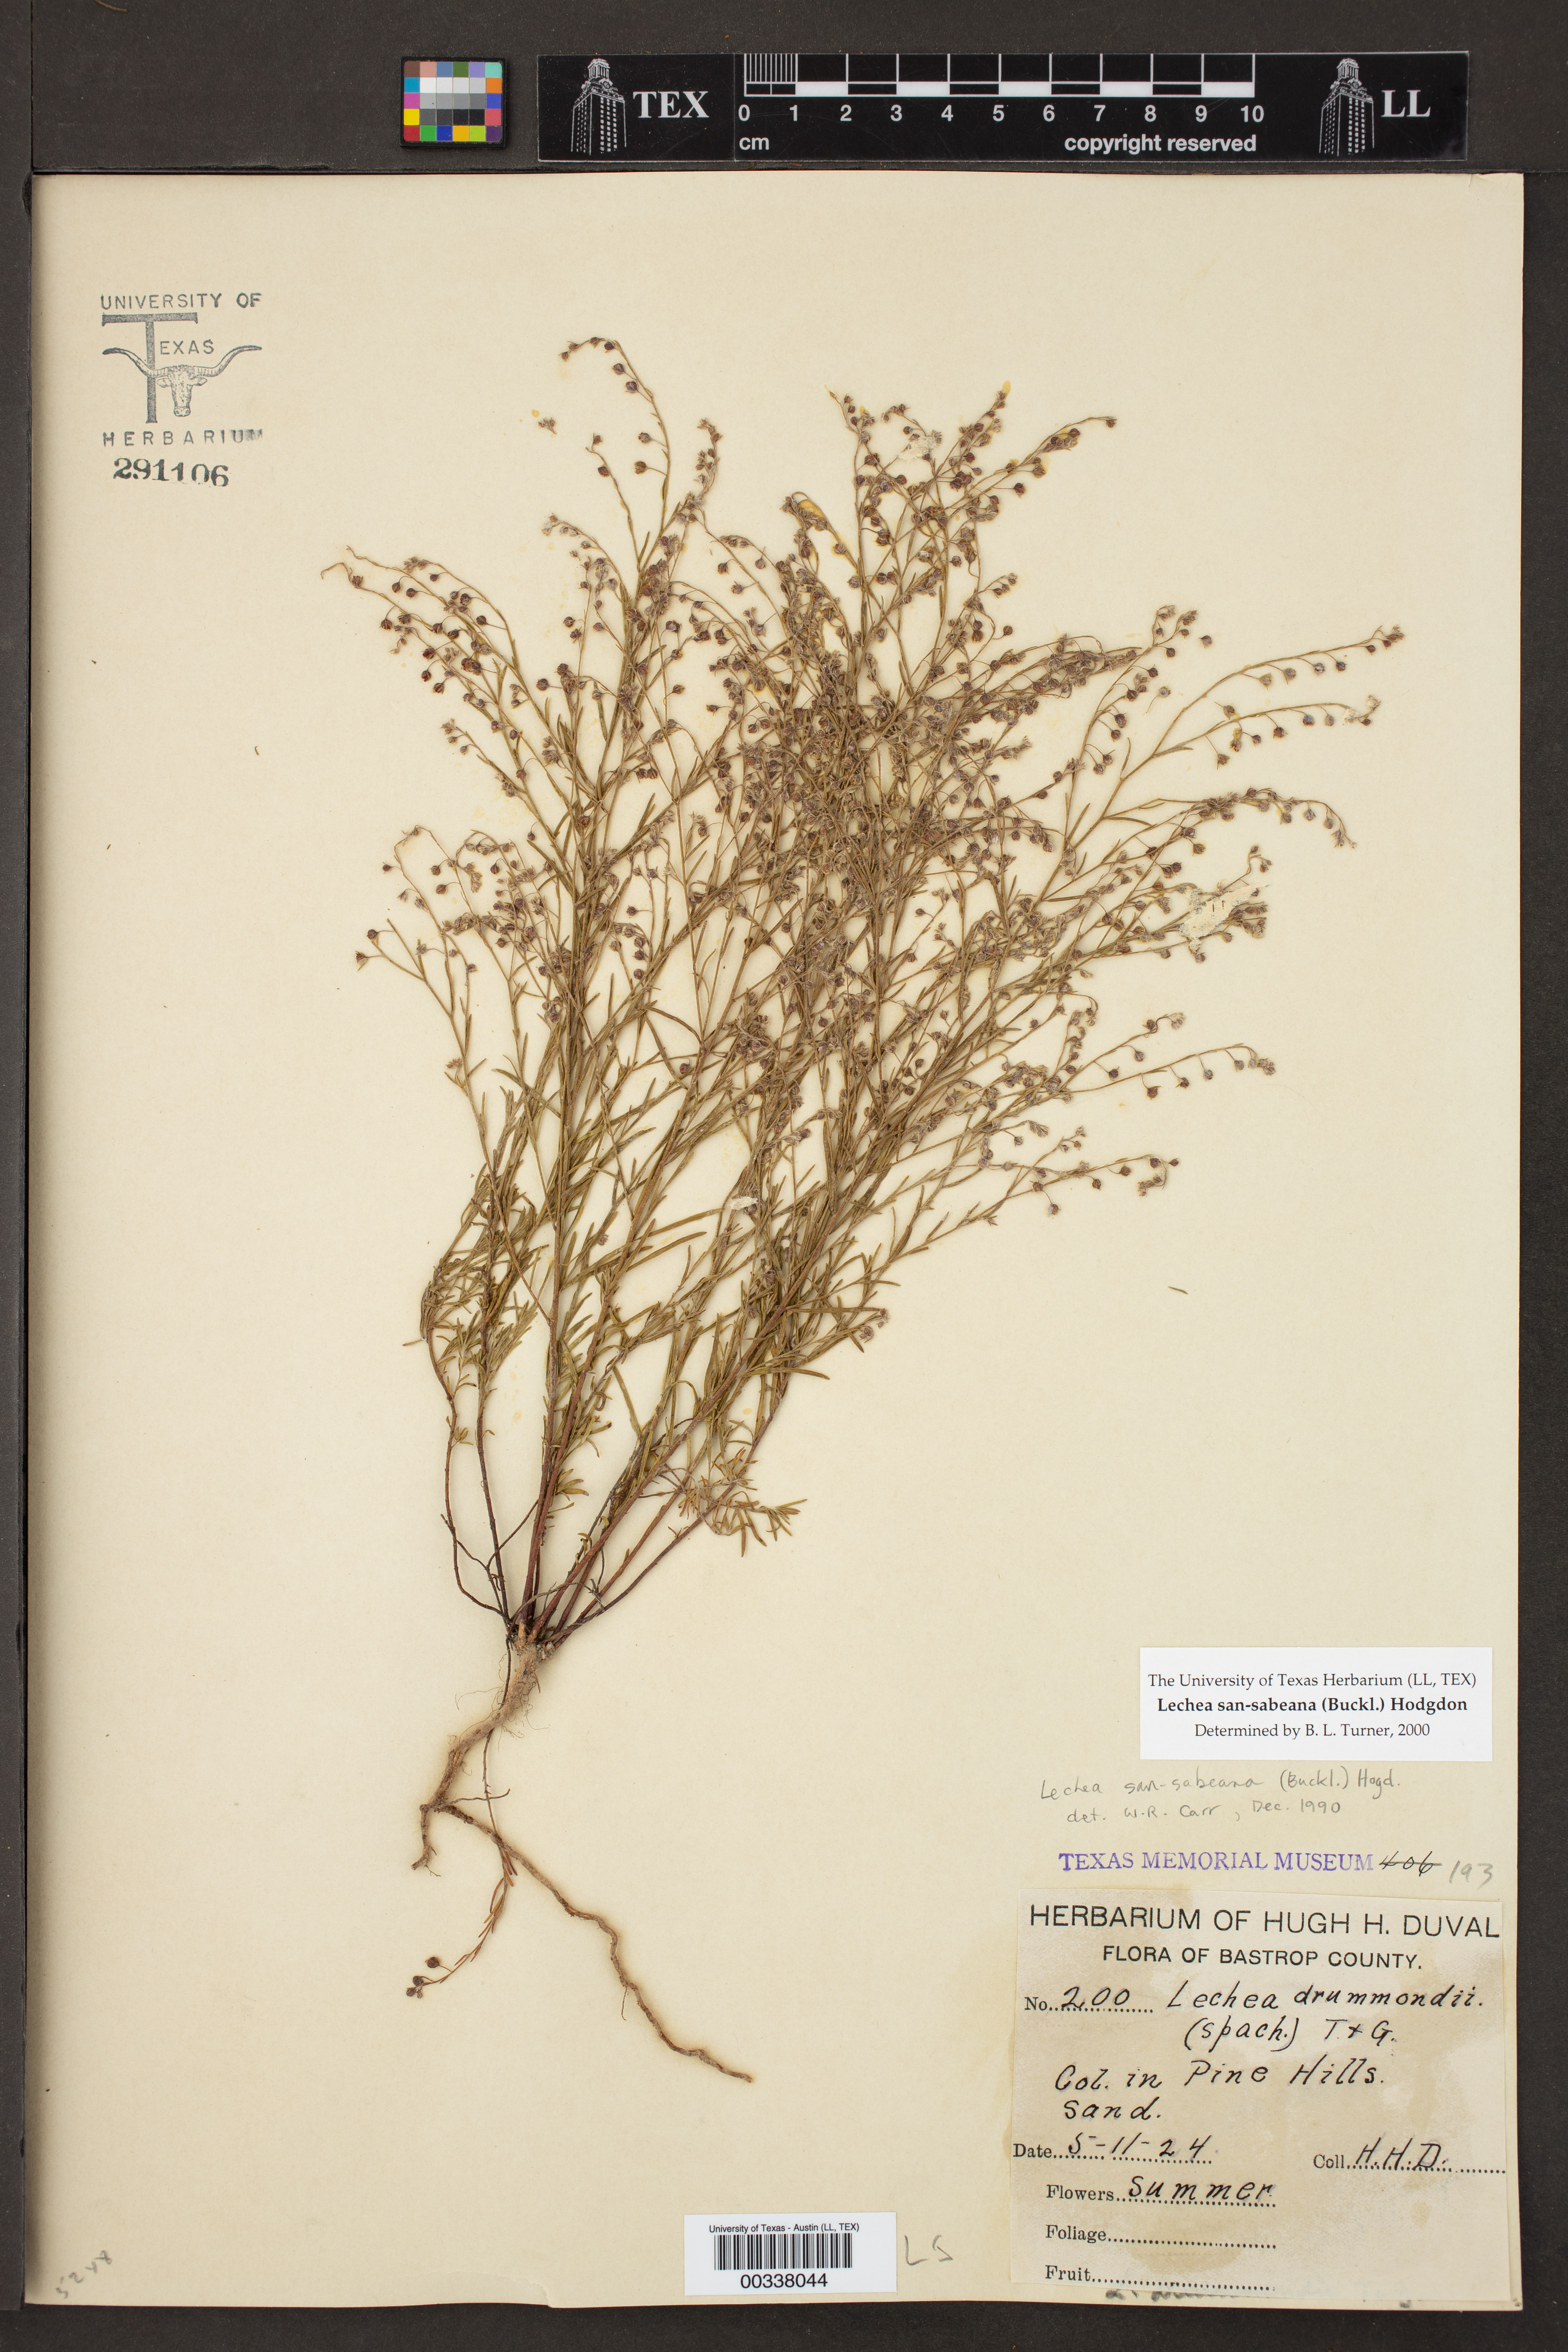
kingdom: Plantae
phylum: Tracheophyta
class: Magnoliopsida
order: Malvales
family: Cistaceae
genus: Lechea
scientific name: Lechea san-sabeana
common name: San saba pinweed
